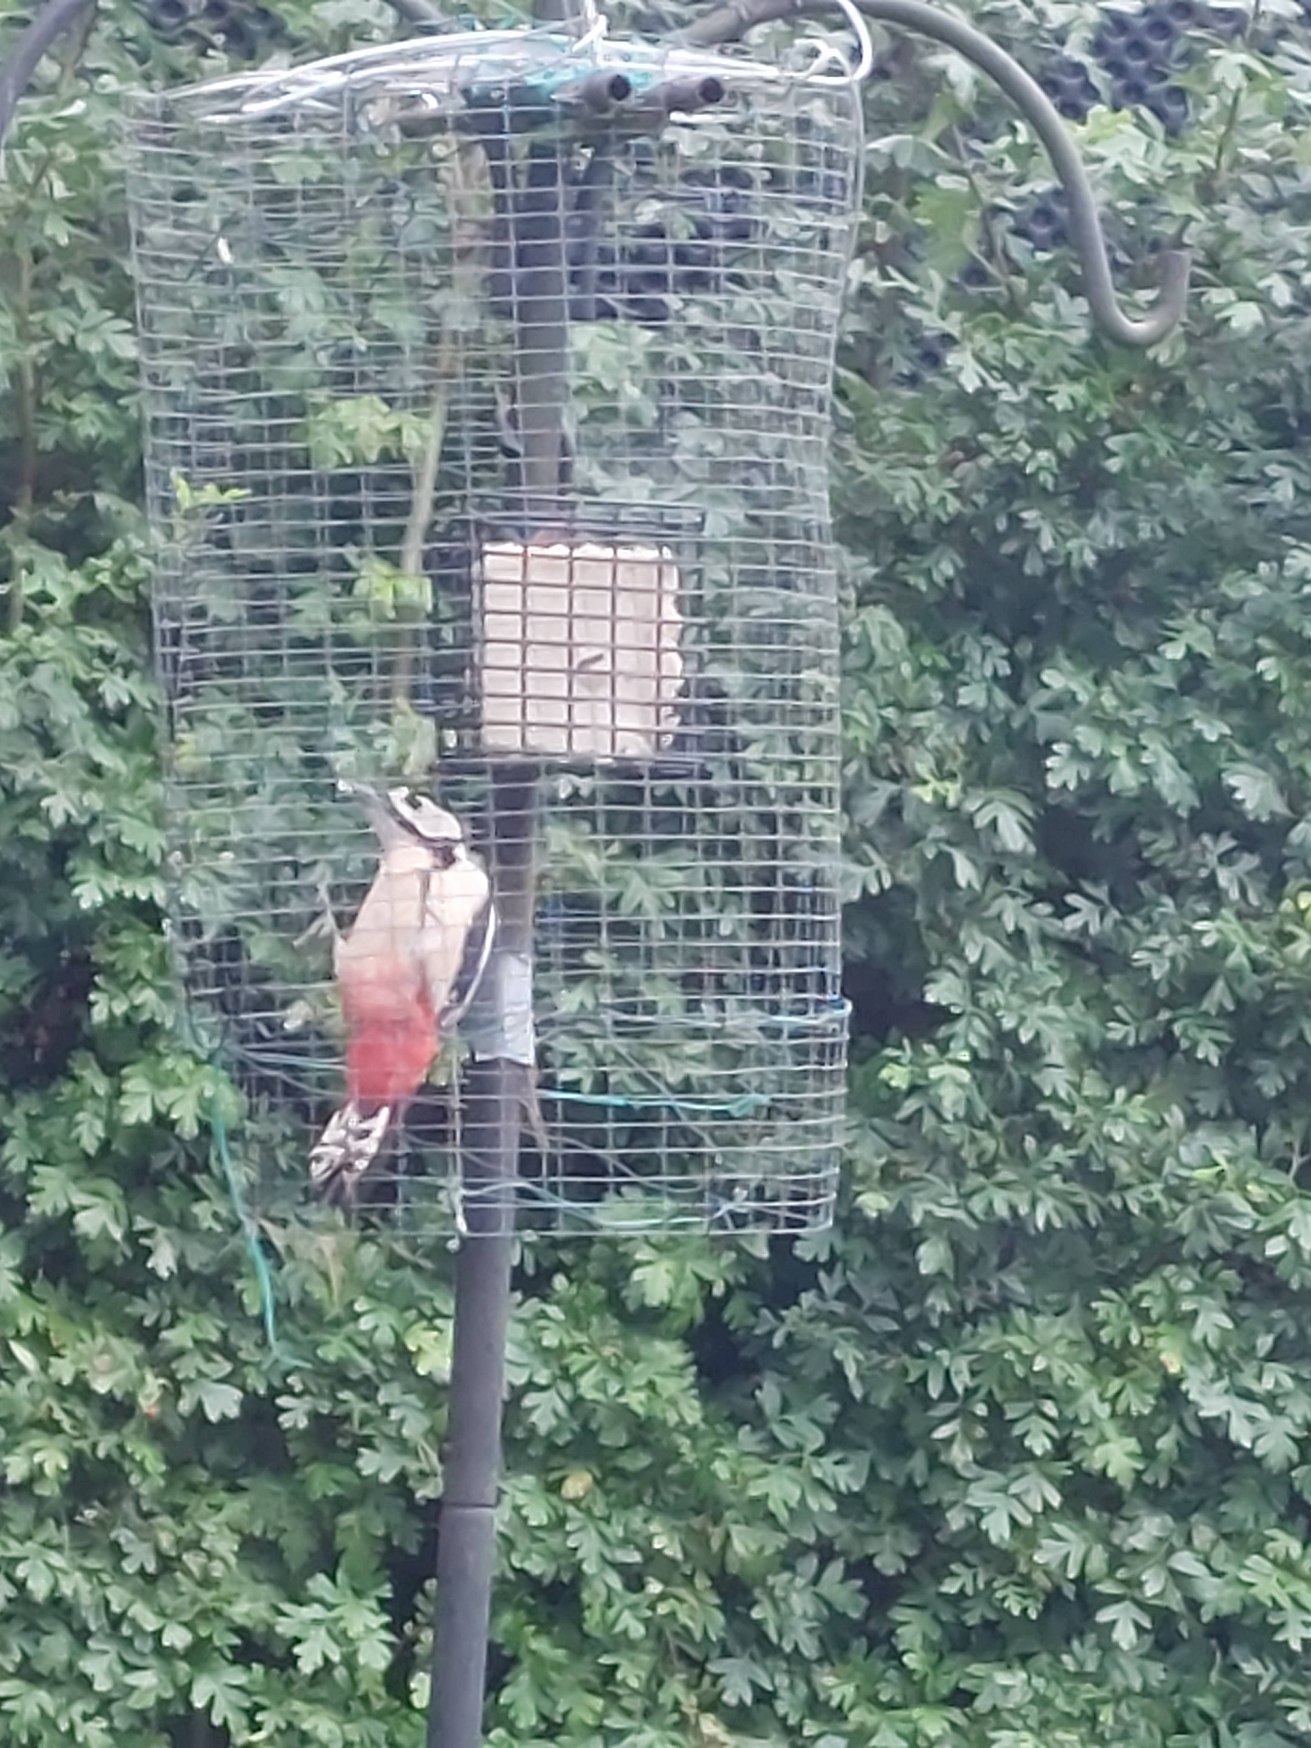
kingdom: Animalia
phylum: Chordata
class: Aves
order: Piciformes
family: Picidae
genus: Dendrocopos
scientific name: Dendrocopos major
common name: Stor flagspætte
